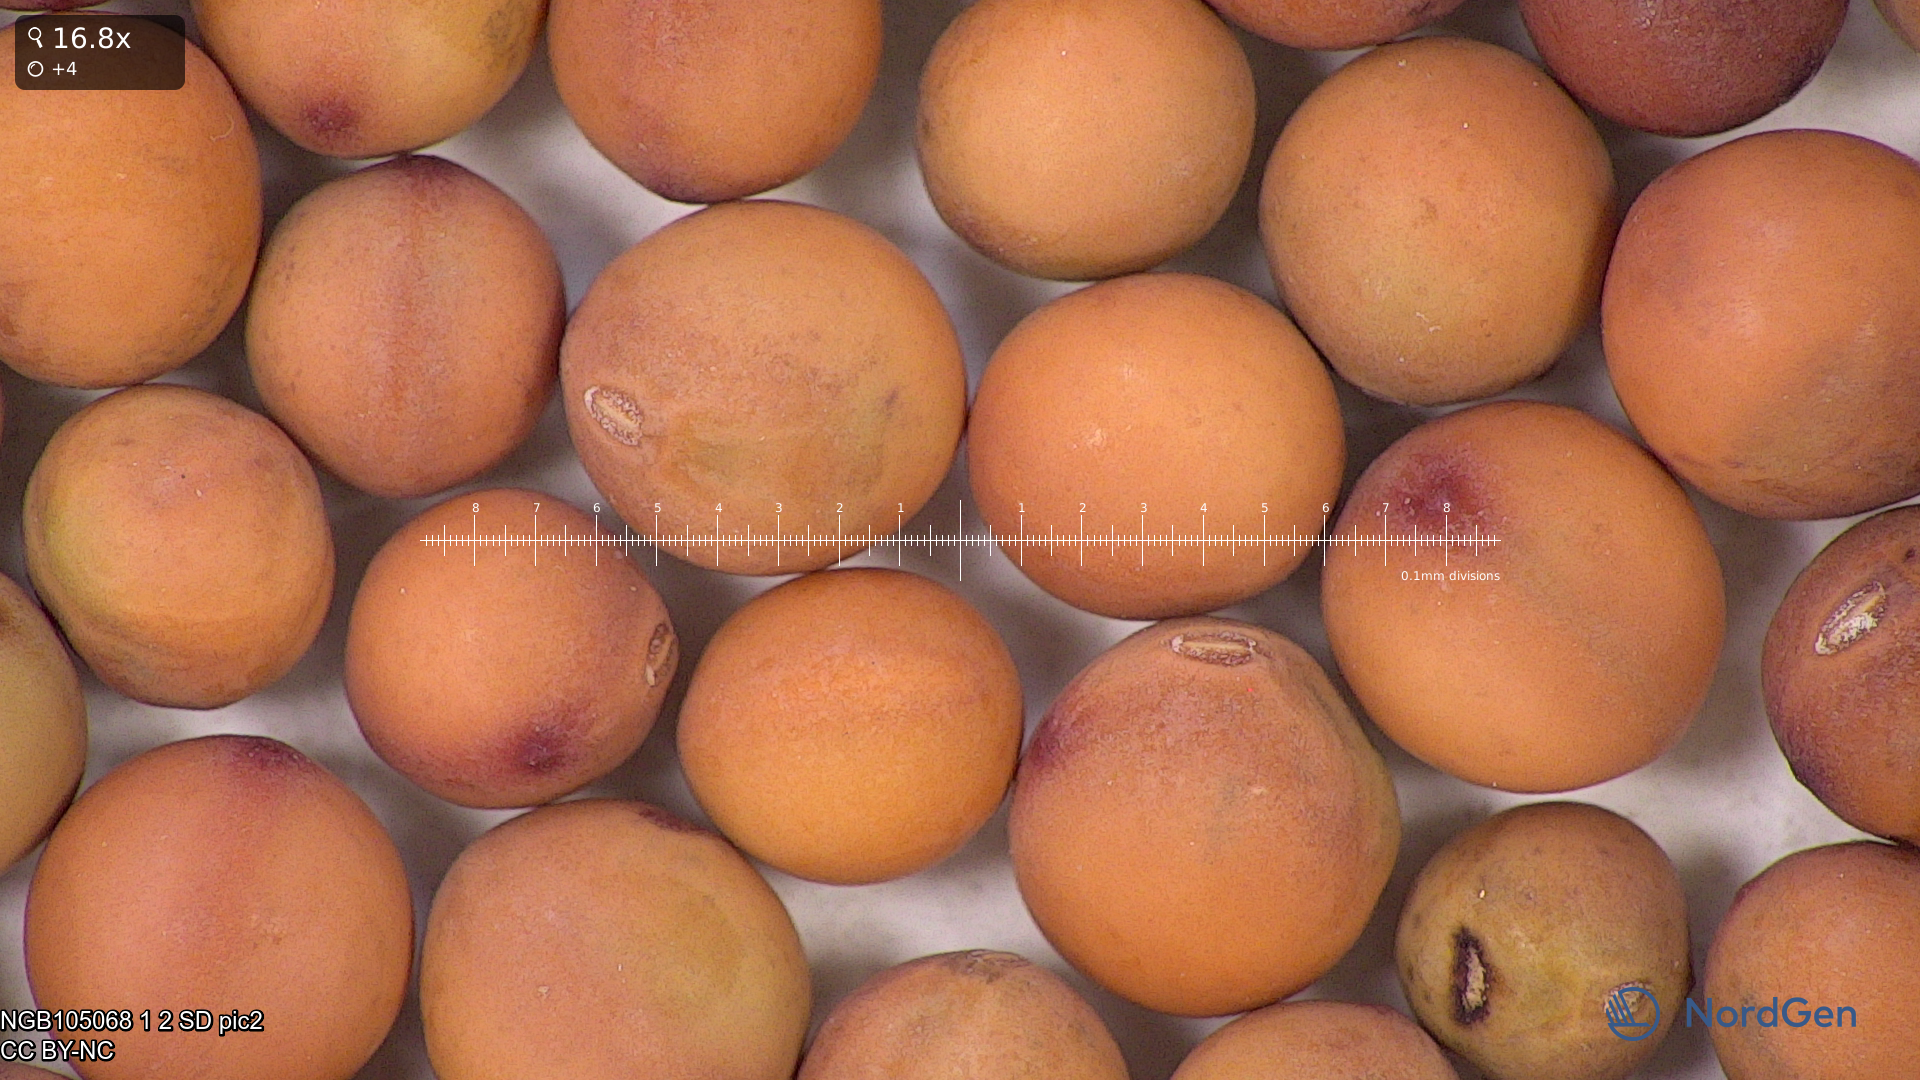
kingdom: Plantae
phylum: Tracheophyta
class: Magnoliopsida
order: Fabales
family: Fabaceae
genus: Lathyrus
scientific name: Lathyrus oleraceus
